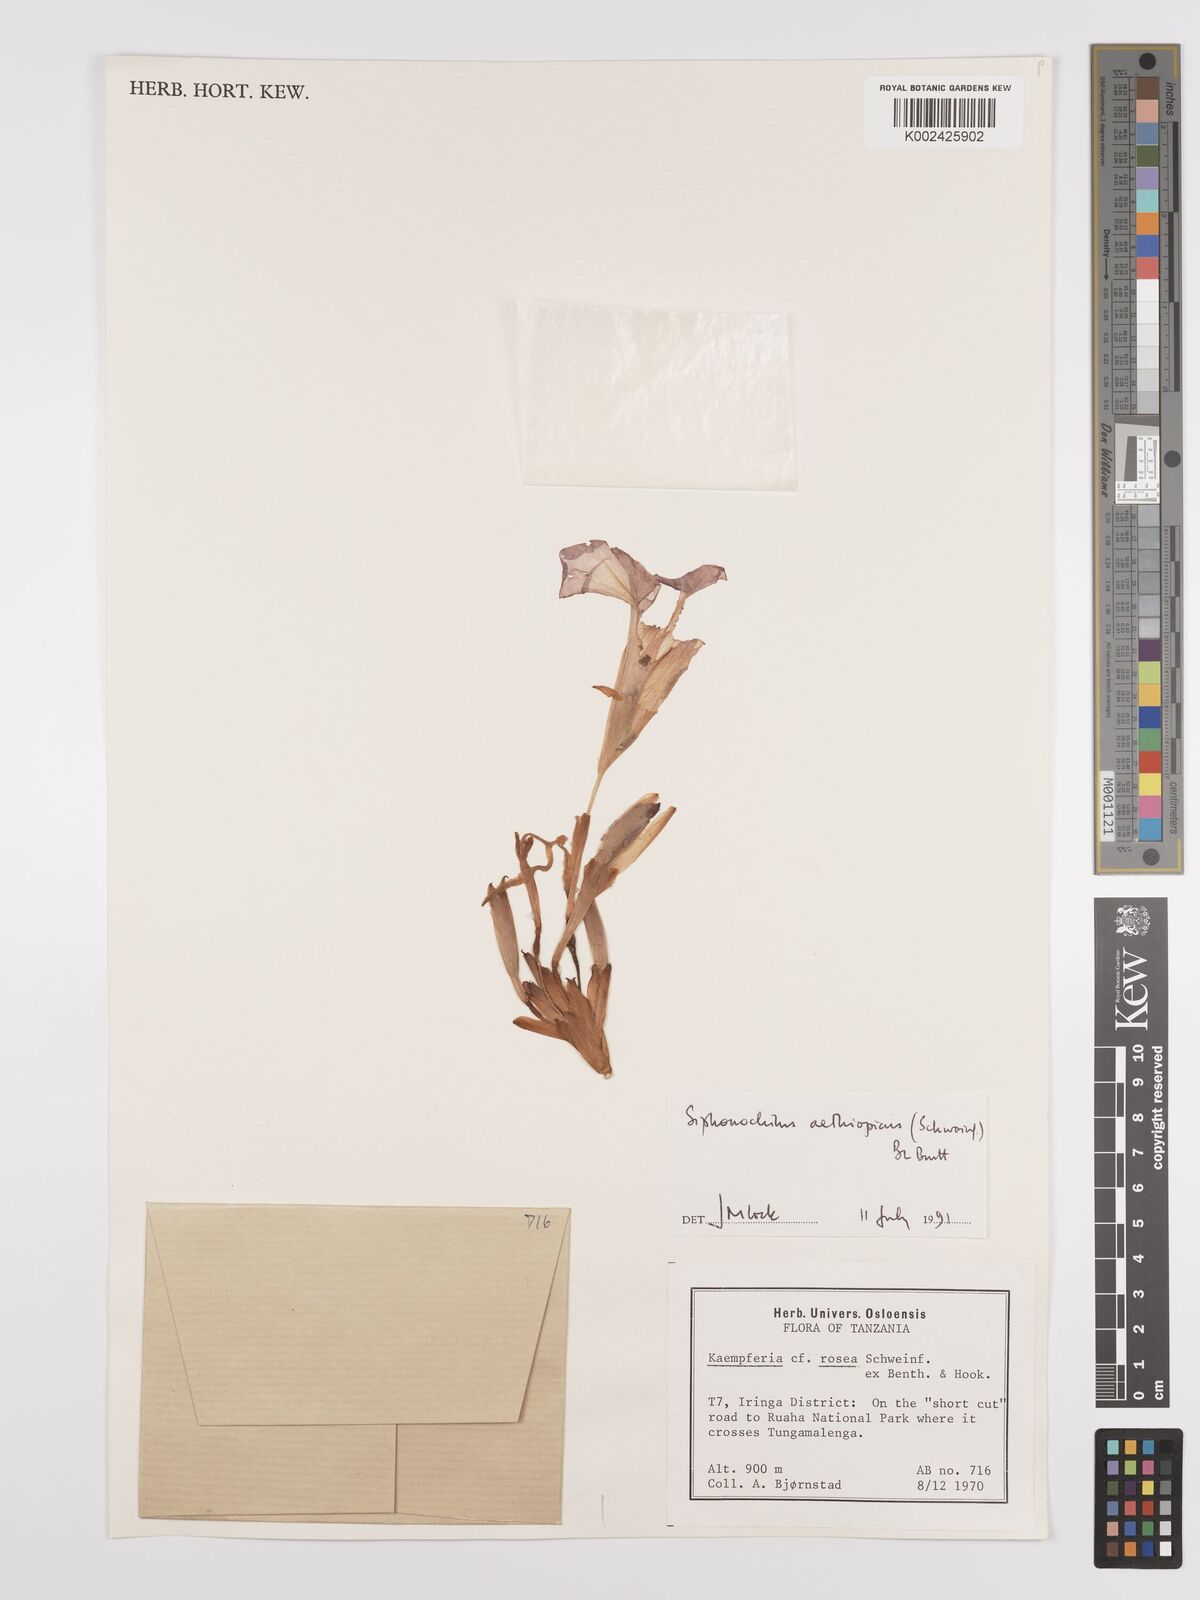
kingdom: Plantae
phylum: Tracheophyta
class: Liliopsida
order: Zingiberales
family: Zingiberaceae
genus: Siphonochilus
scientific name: Siphonochilus aethiopicus
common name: African-ginger
